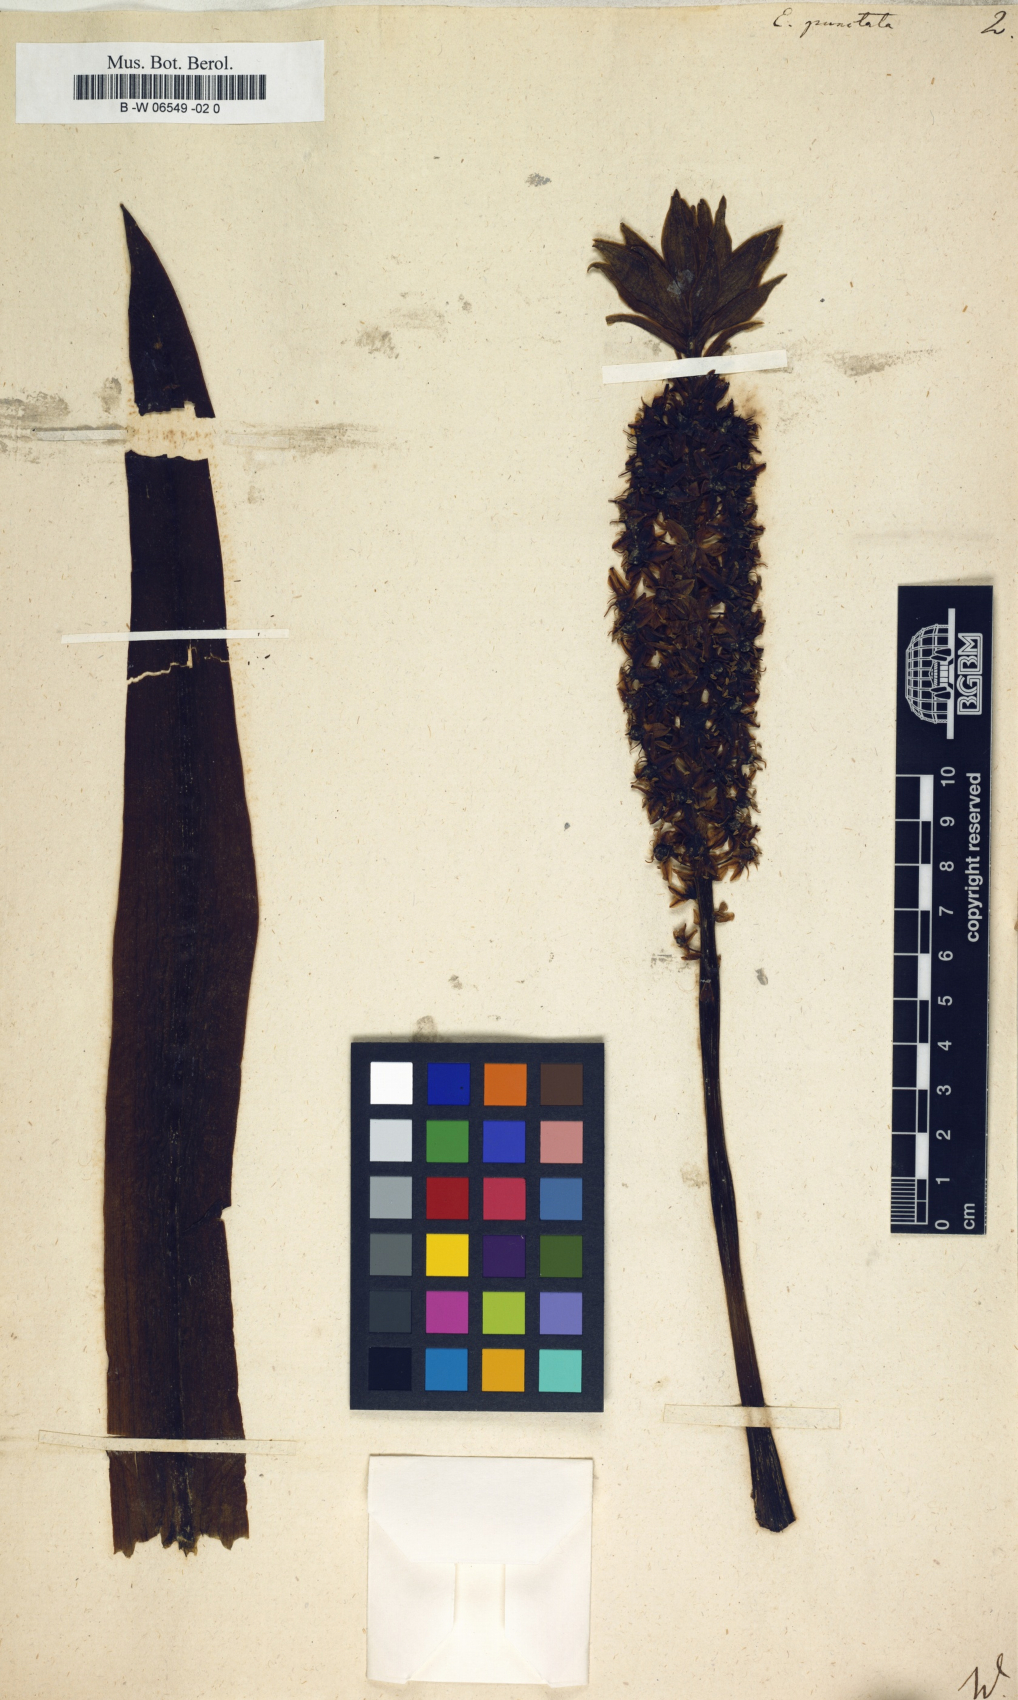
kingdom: Plantae
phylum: Tracheophyta
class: Liliopsida
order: Asparagales
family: Asparagaceae
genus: Eucomis
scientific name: Eucomis
